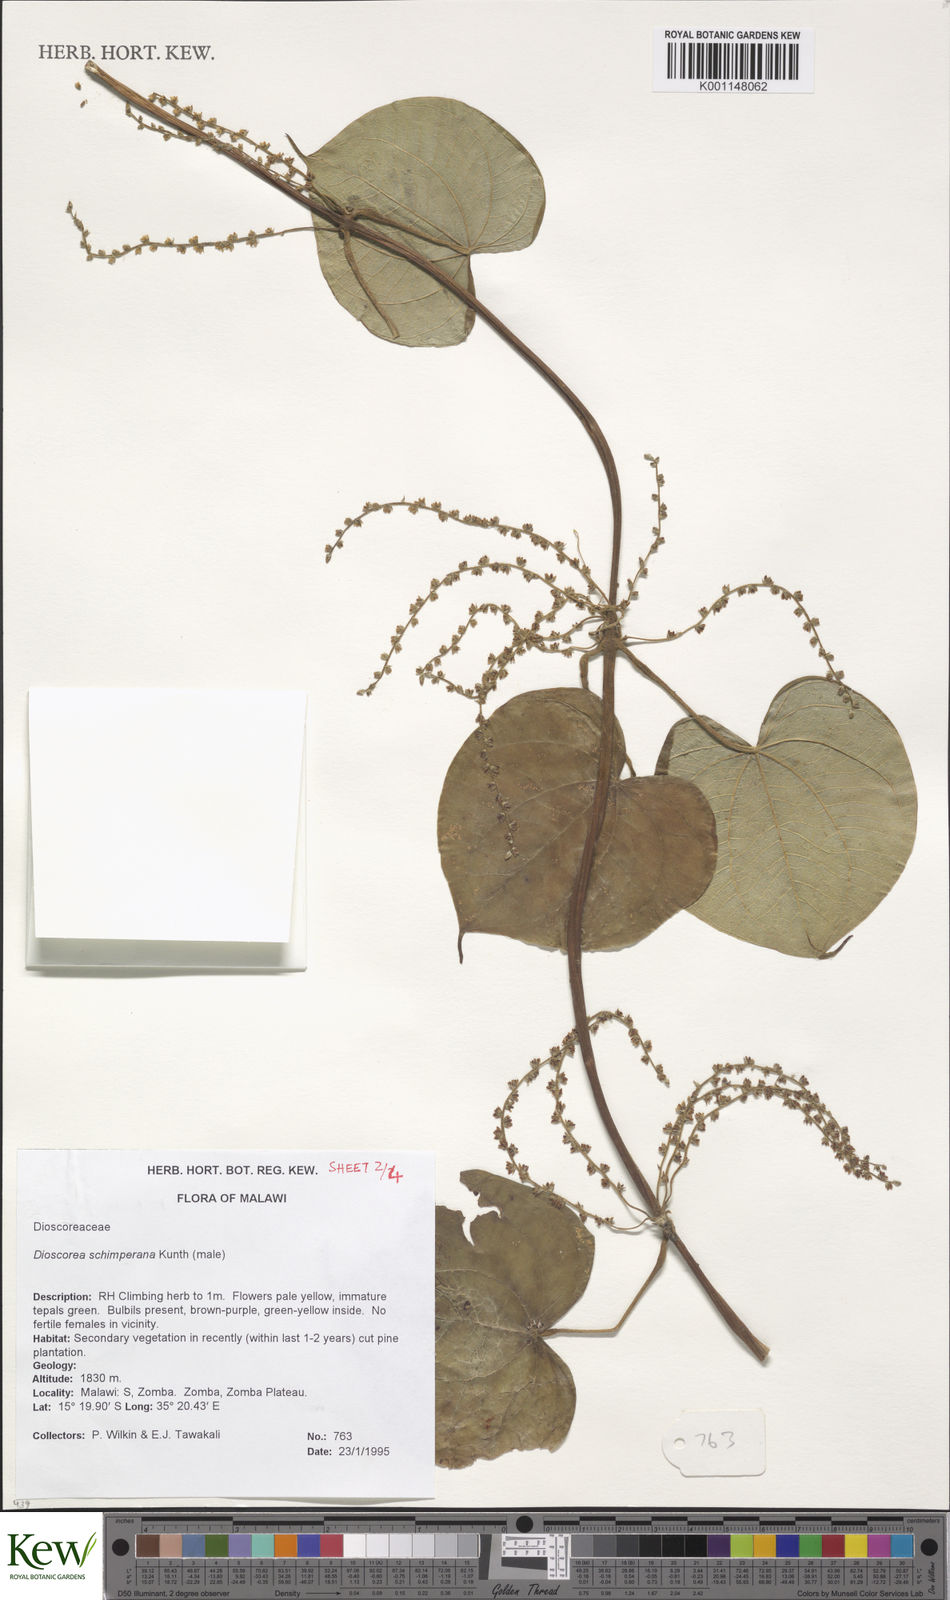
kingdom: Plantae
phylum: Tracheophyta
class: Liliopsida
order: Dioscoreales
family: Dioscoreaceae
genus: Dioscorea
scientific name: Dioscorea schimperiana
